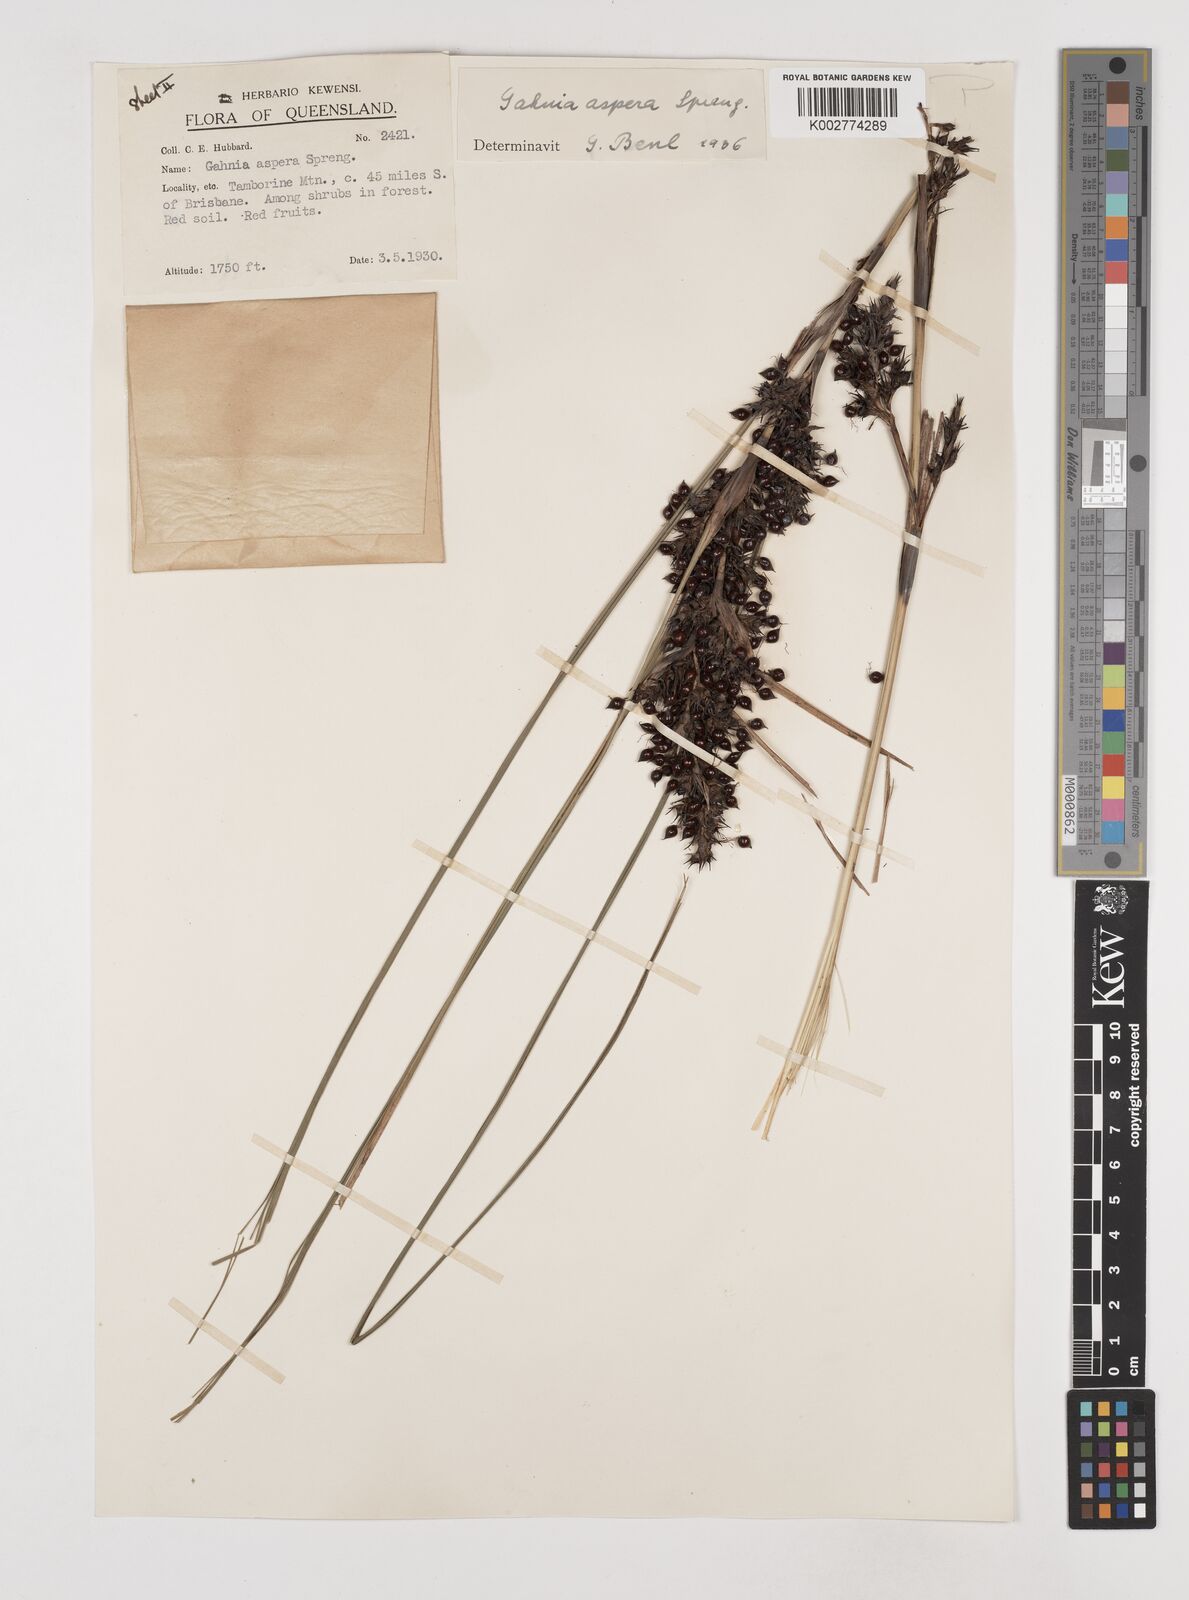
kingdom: Plantae
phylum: Tracheophyta
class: Liliopsida
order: Poales
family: Cyperaceae
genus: Gahnia
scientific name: Gahnia aspera
